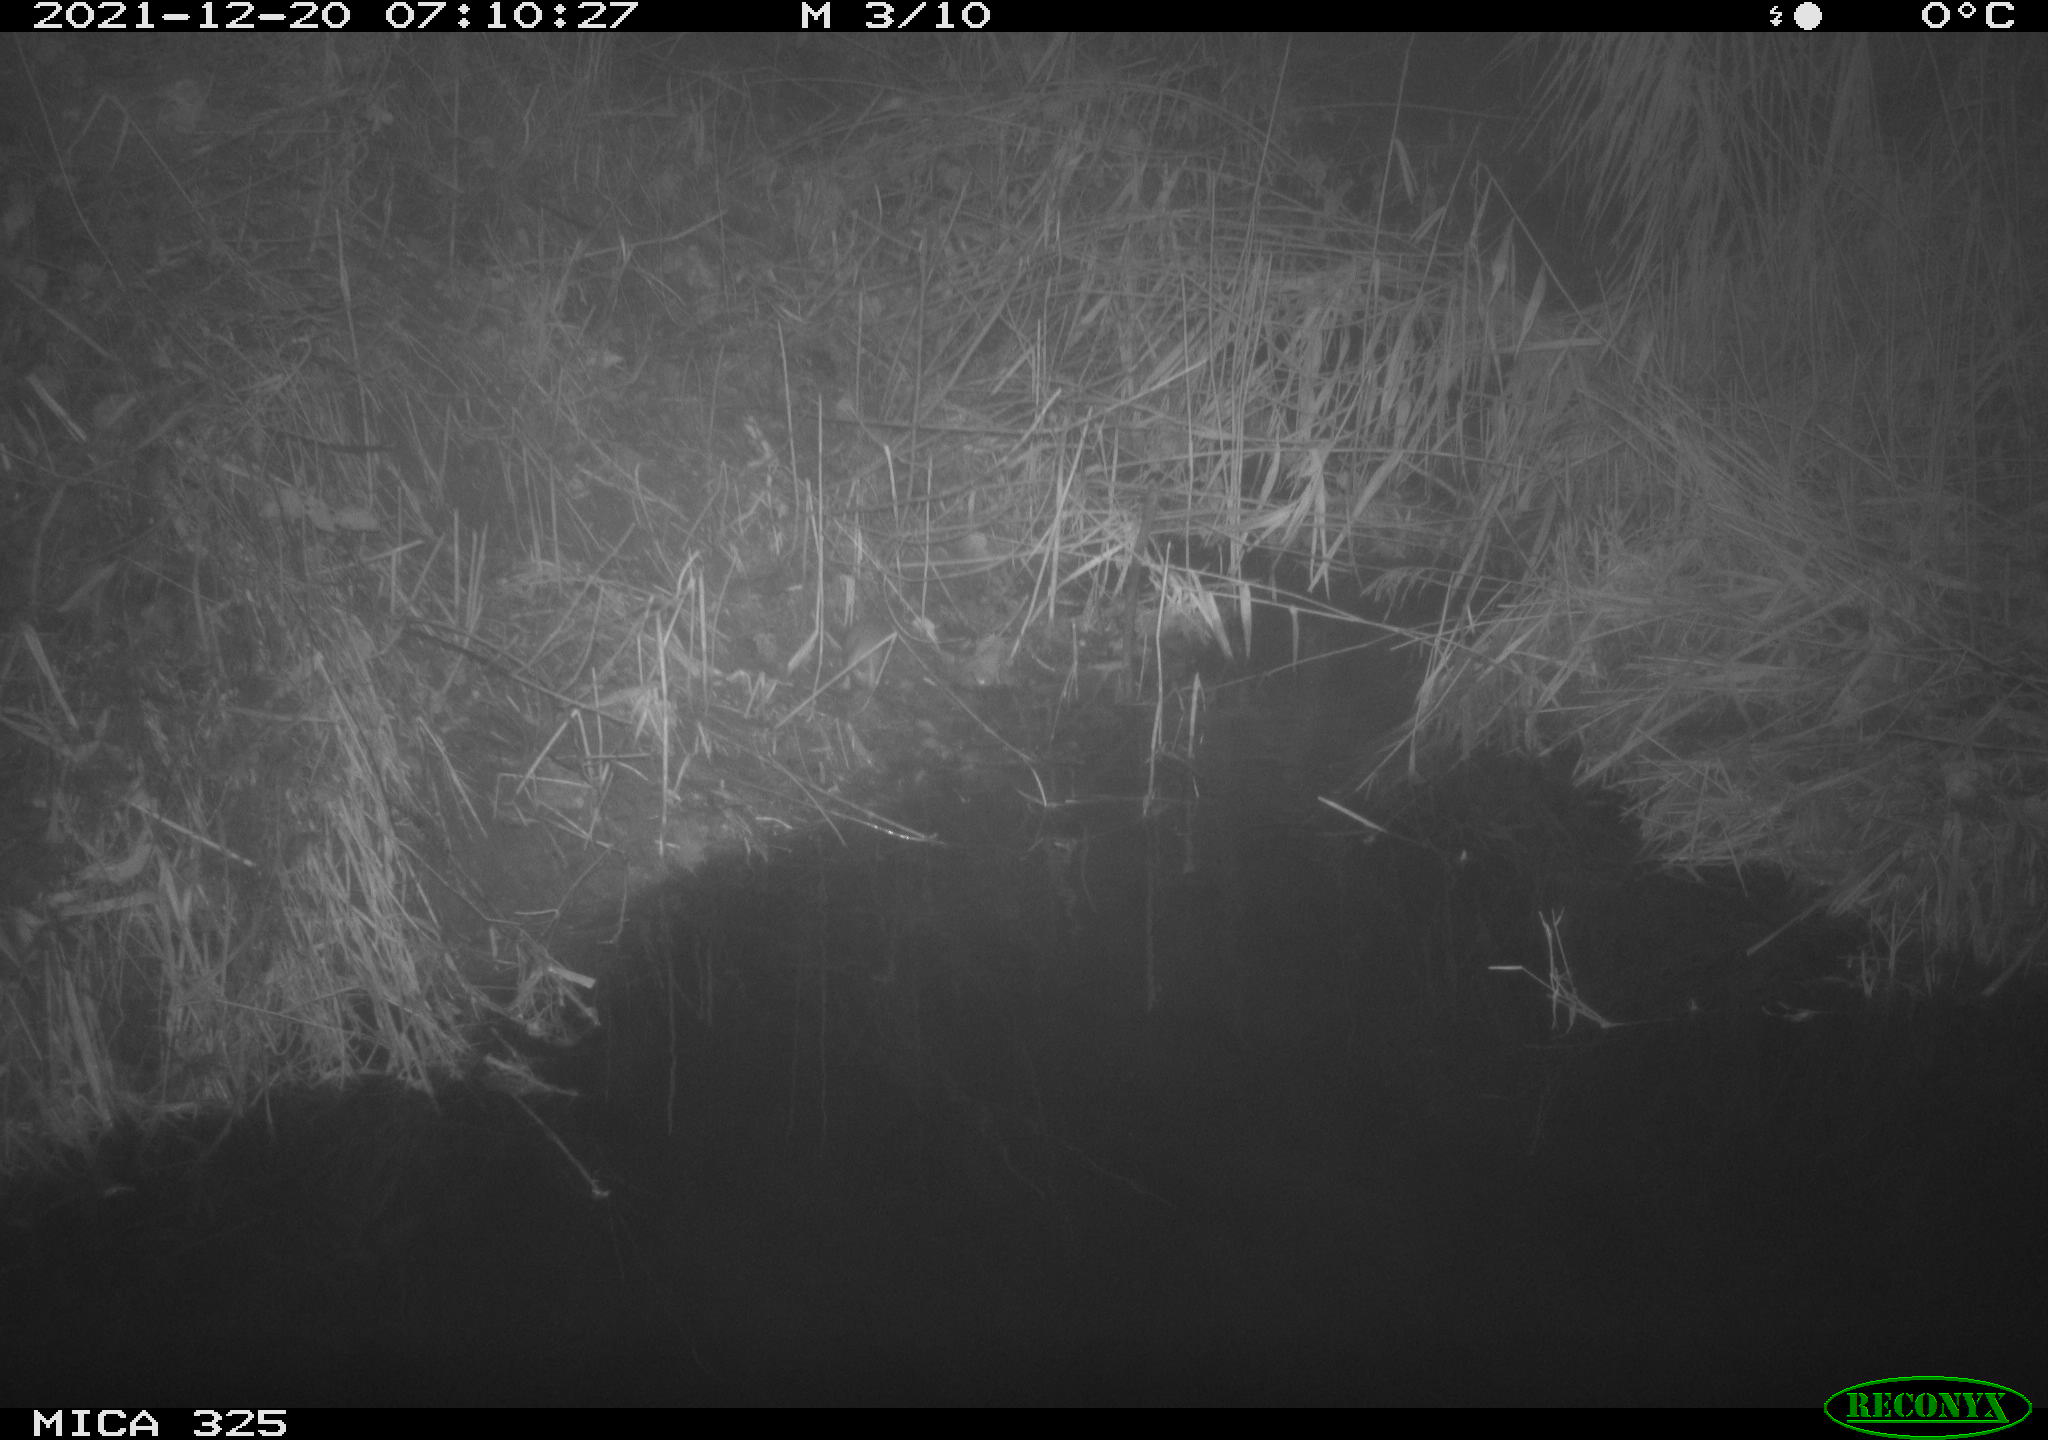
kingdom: Animalia
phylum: Chordata
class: Mammalia
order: Rodentia
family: Muridae
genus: Rattus
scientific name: Rattus norvegicus
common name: Brown rat
